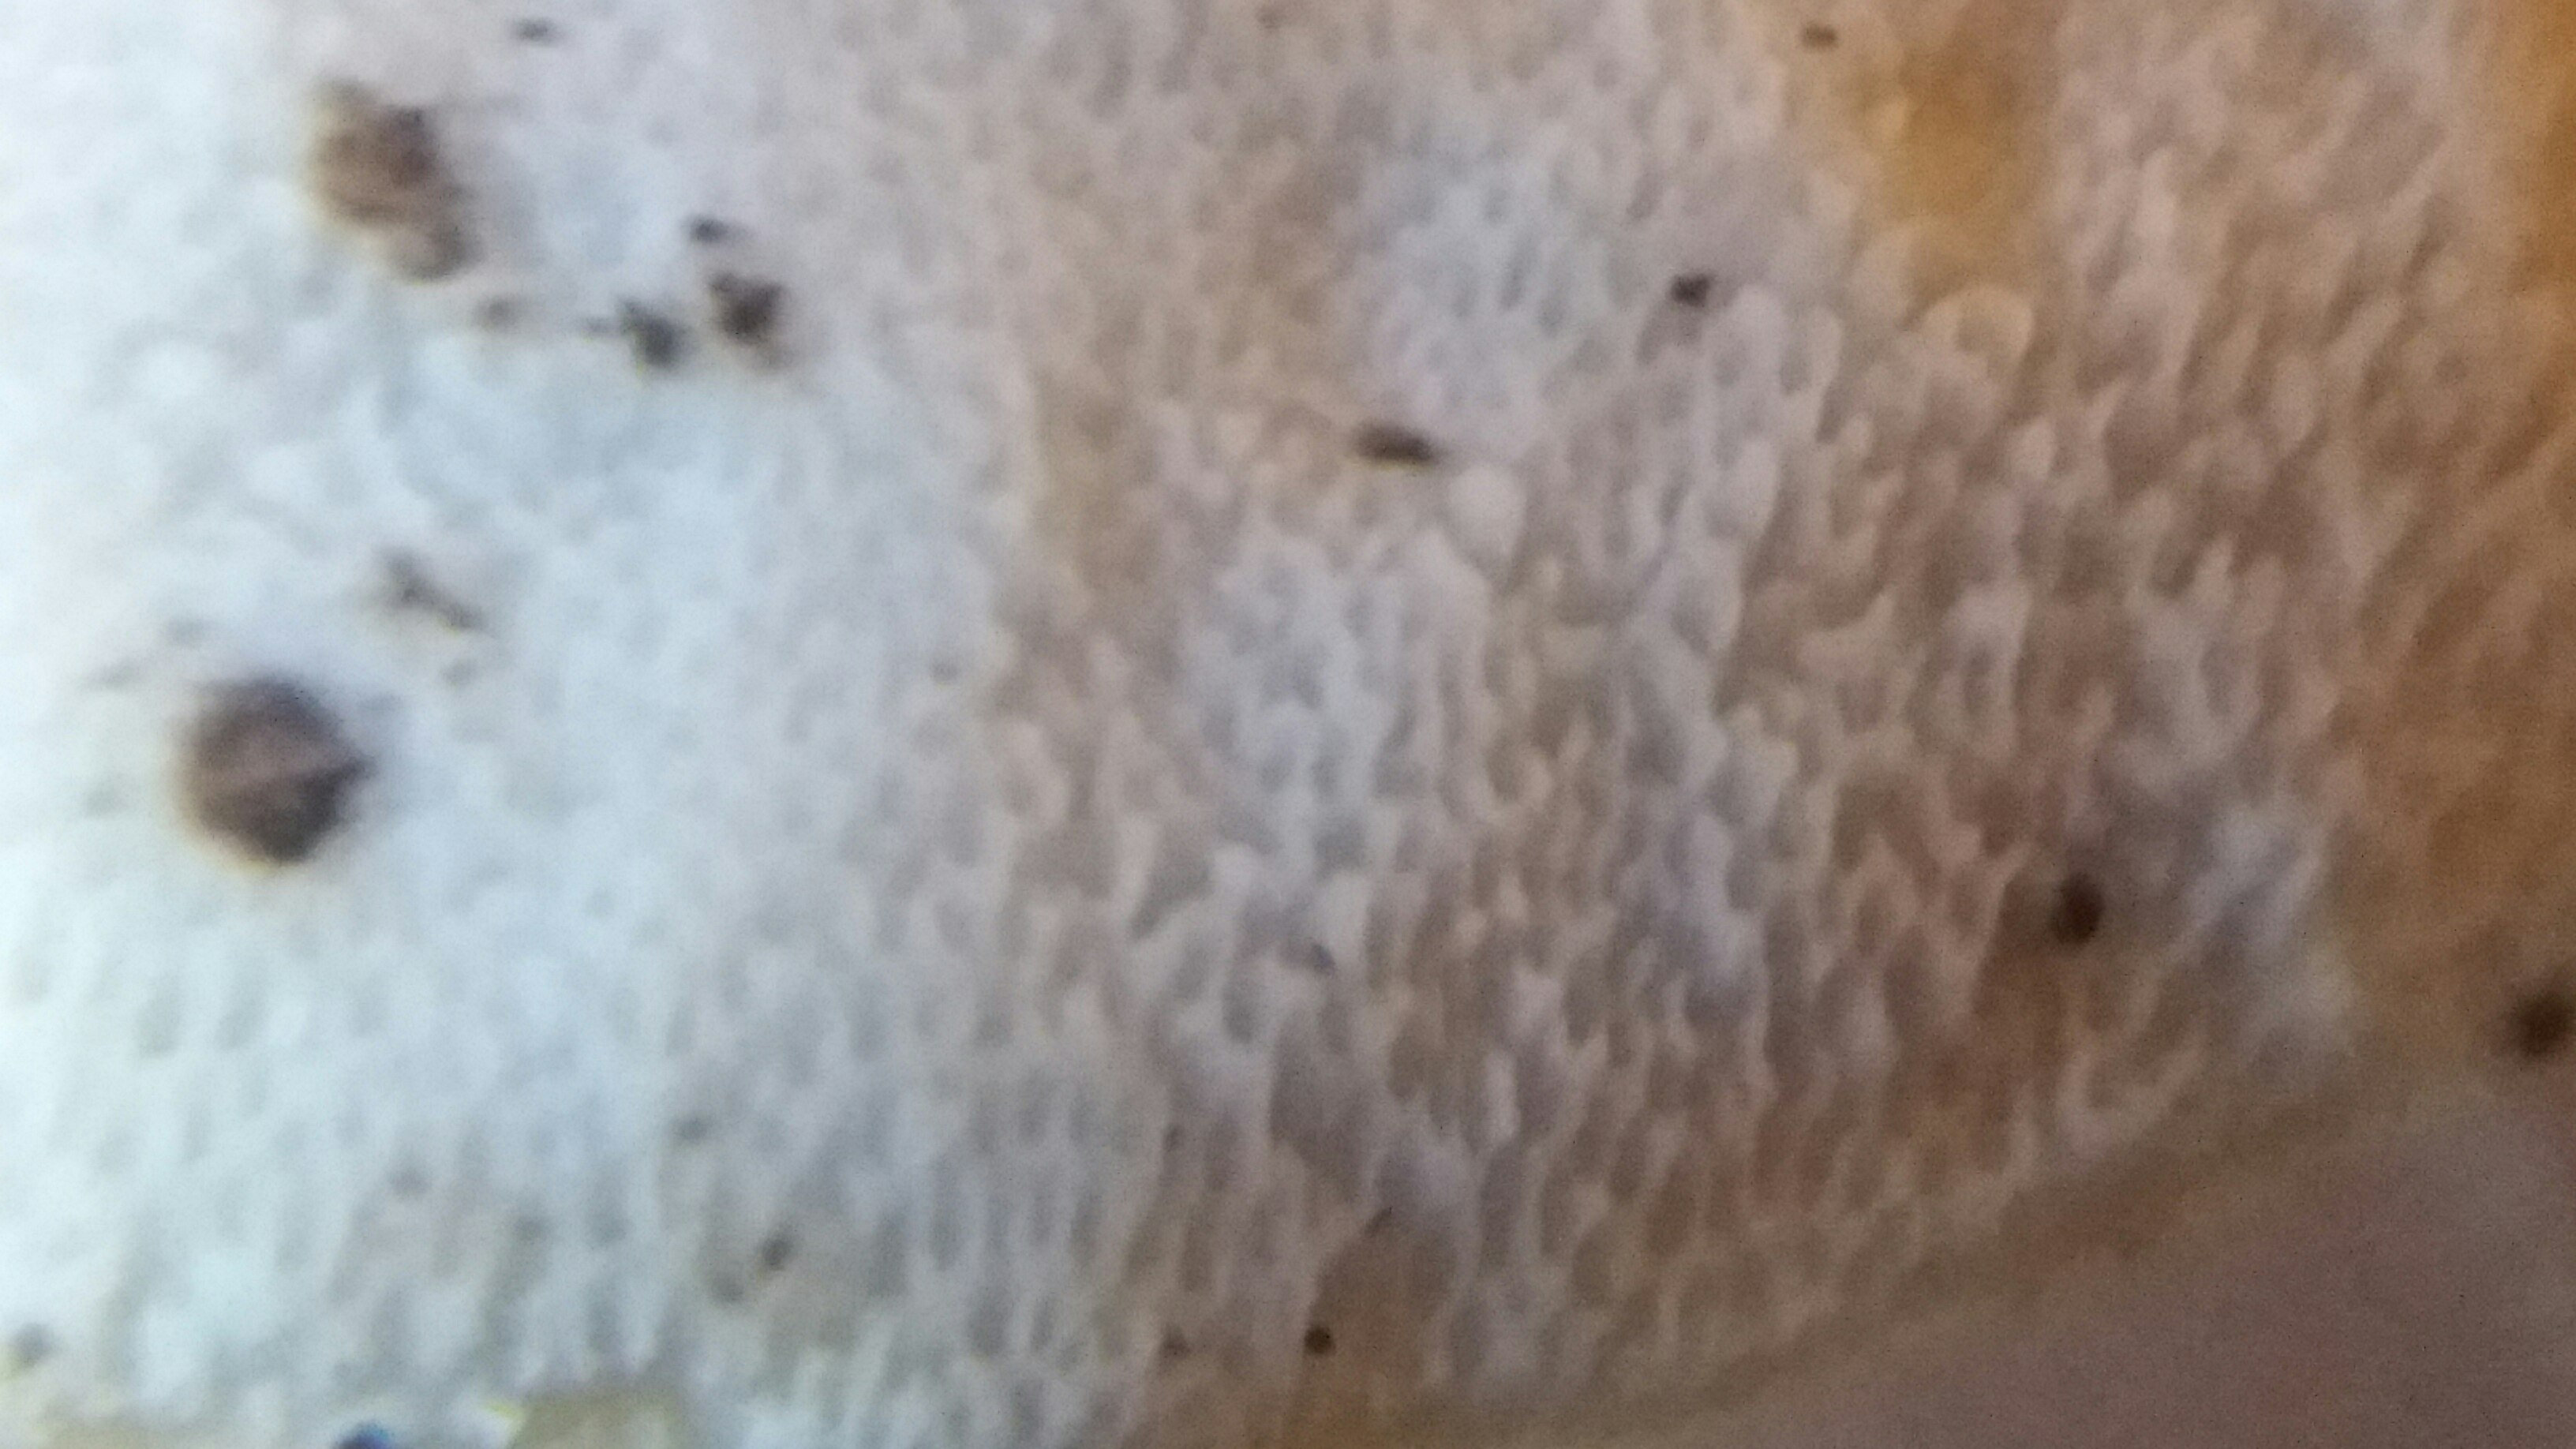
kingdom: Fungi
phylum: Basidiomycota
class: Agaricomycetes
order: Polyporales
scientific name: Polyporales
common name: poresvampordenen
